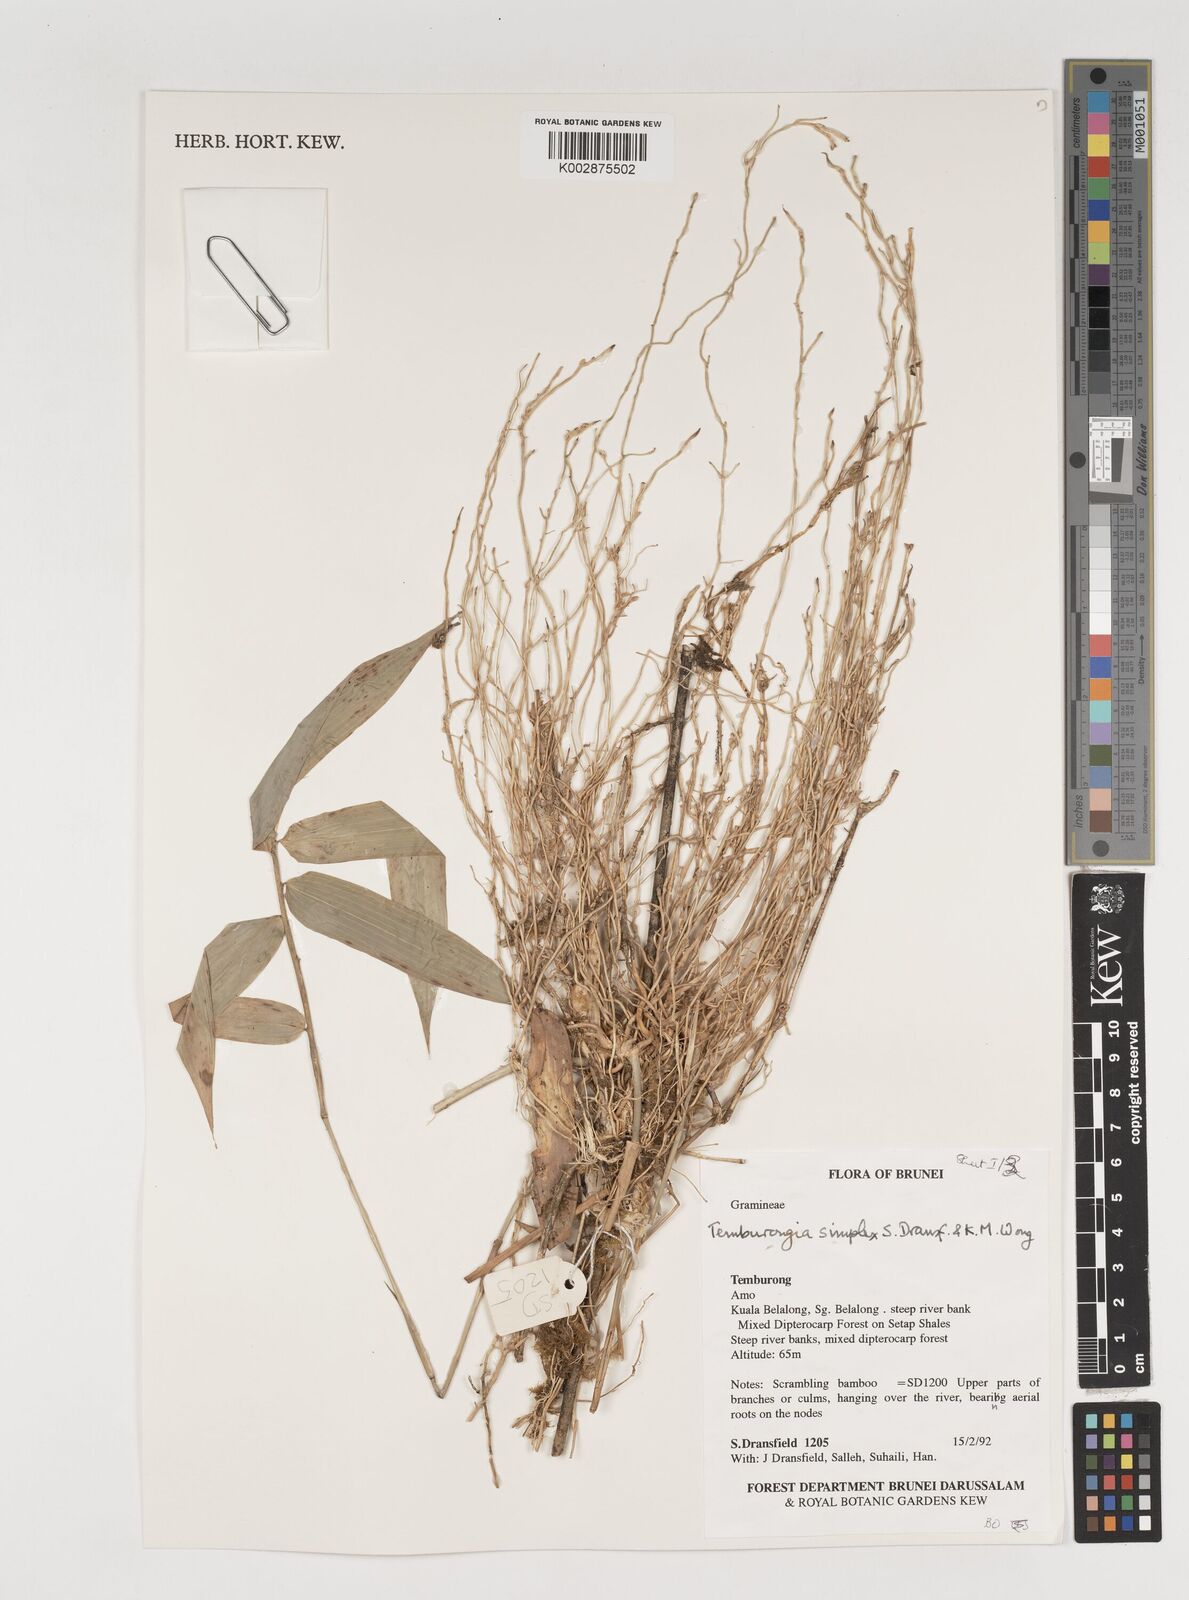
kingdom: Plantae
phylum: Tracheophyta
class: Liliopsida
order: Poales
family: Poaceae
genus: Temburongia
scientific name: Temburongia simplex
